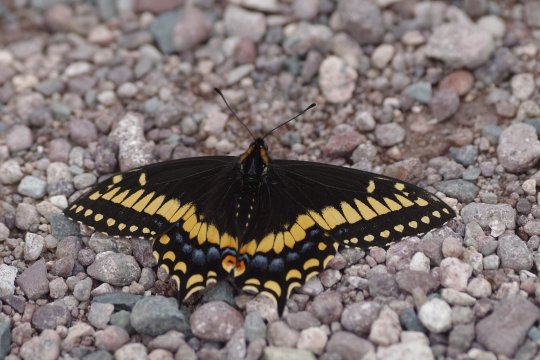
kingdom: Animalia
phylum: Arthropoda
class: Insecta
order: Lepidoptera
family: Papilionidae
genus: Papilio
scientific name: Papilio brevicauda
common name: Short-tailed Swallowtail
